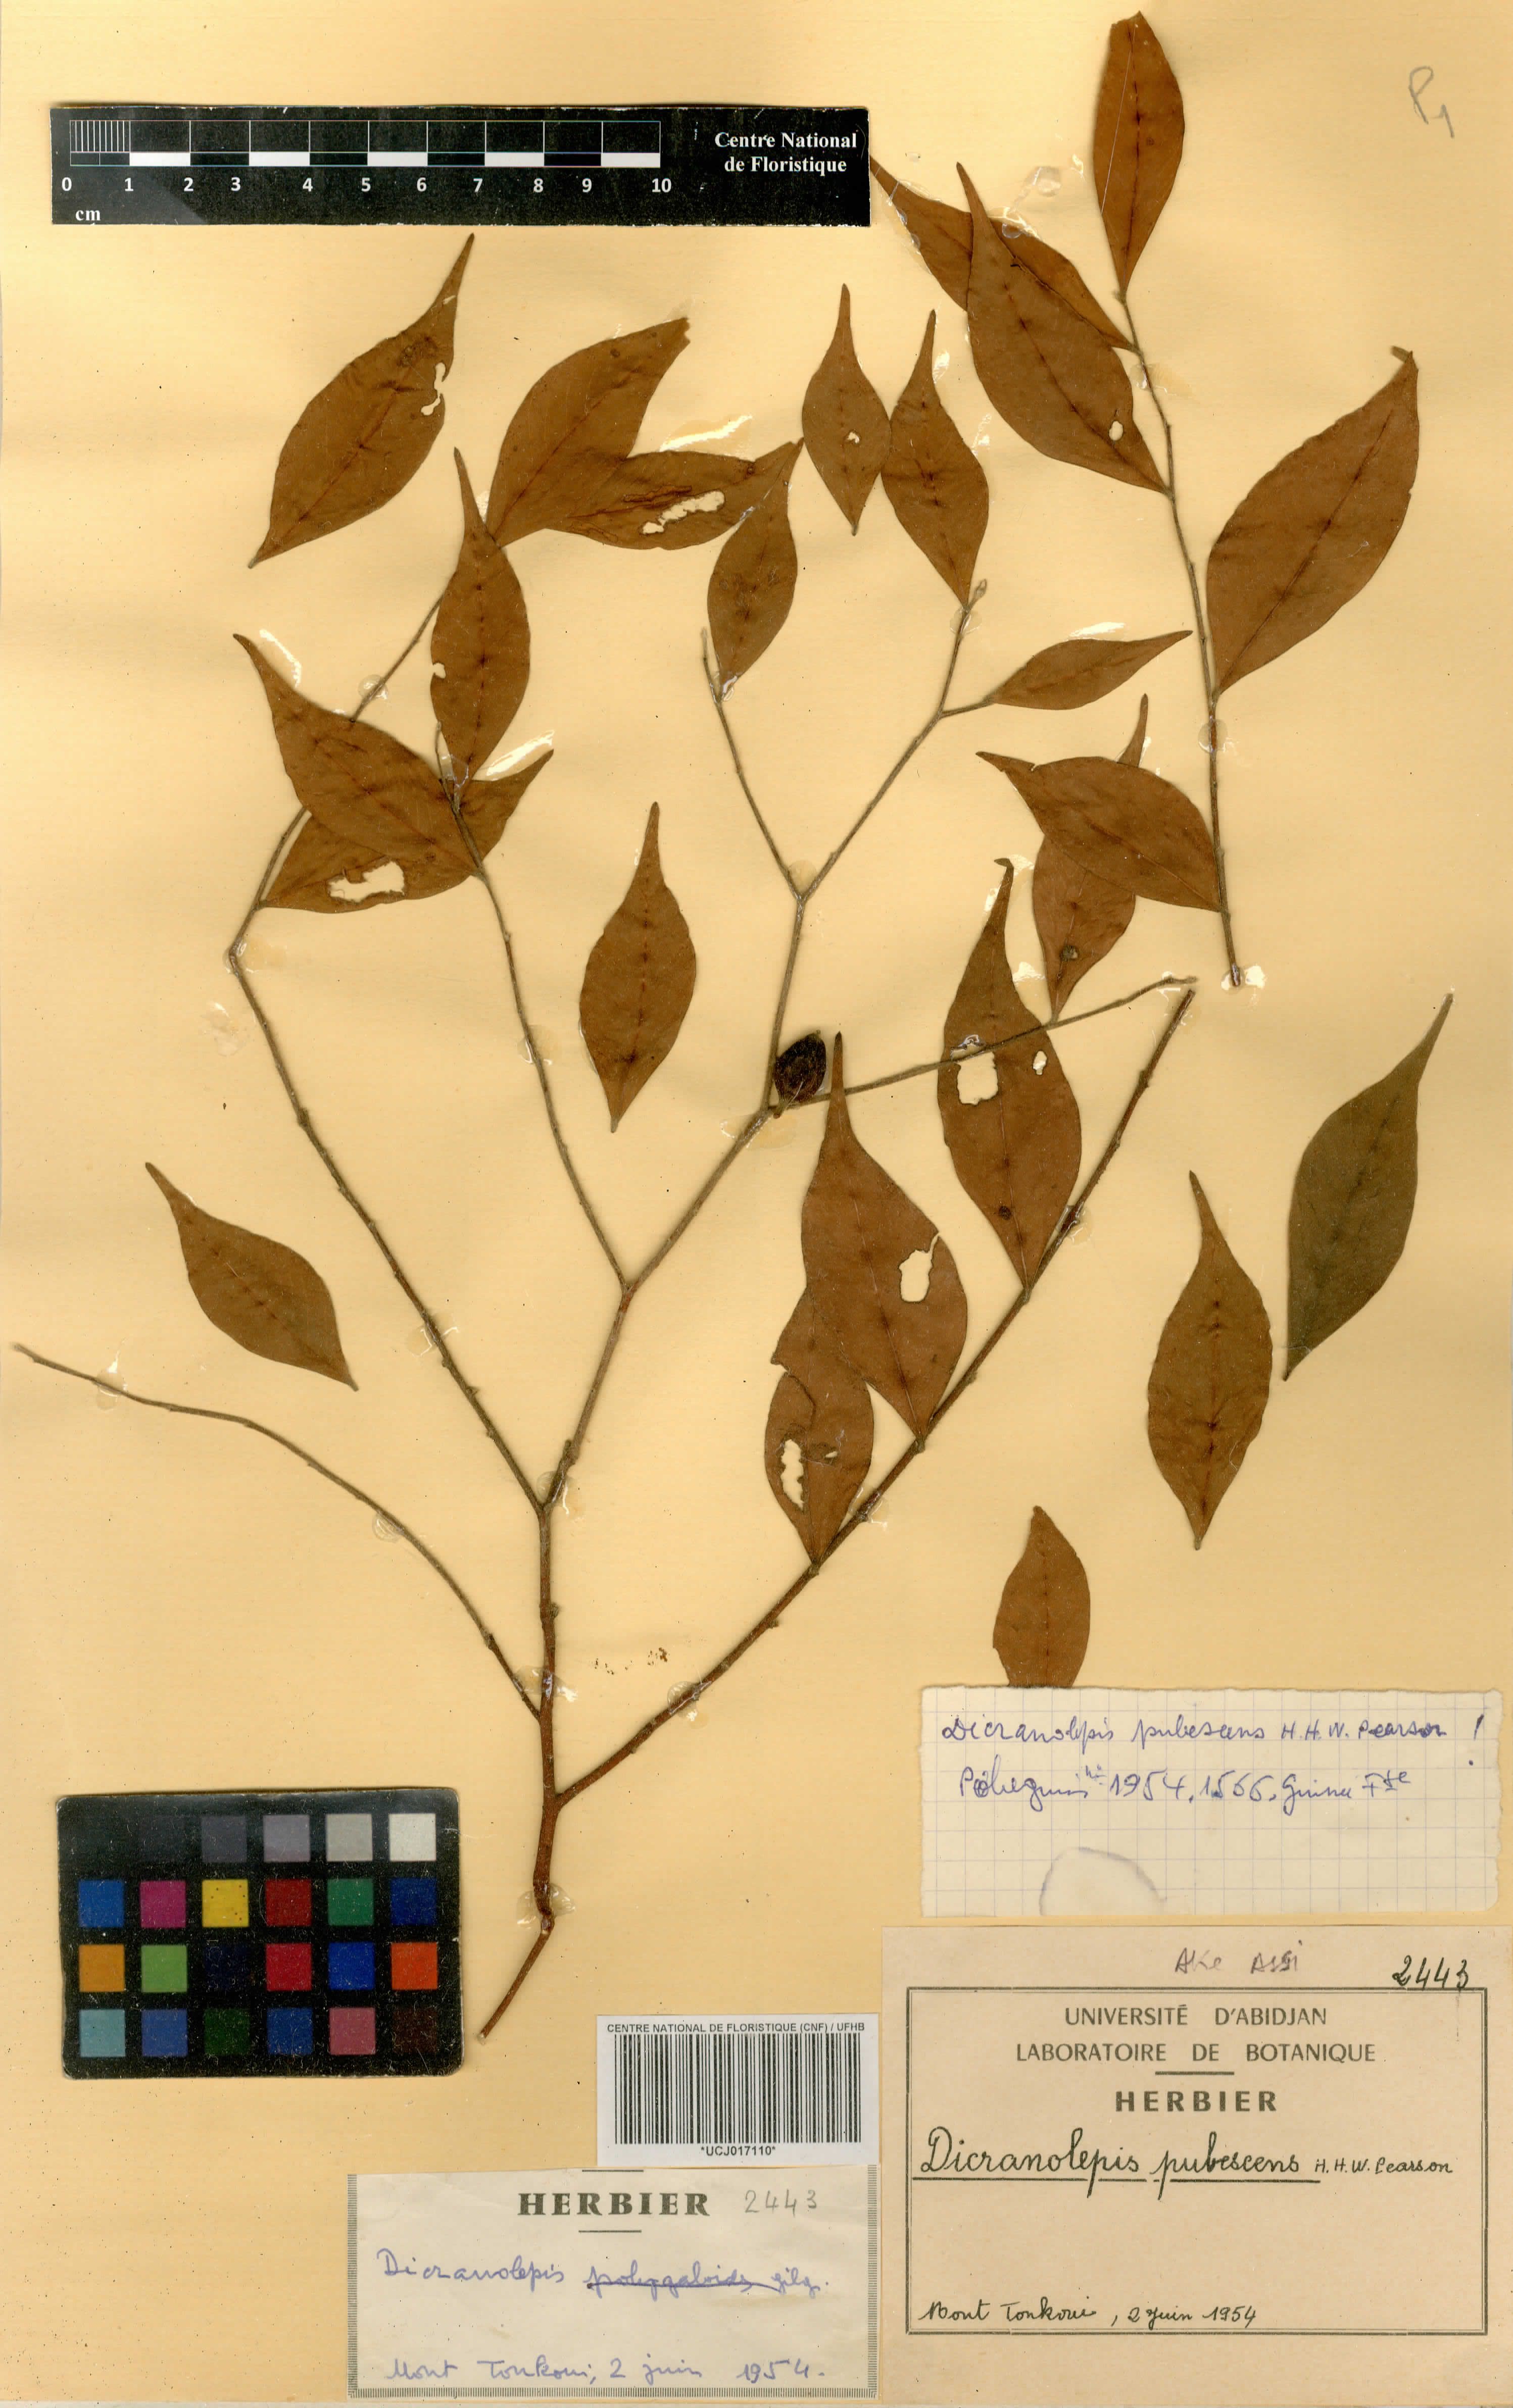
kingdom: Plantae
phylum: Tracheophyta
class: Magnoliopsida
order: Malvales
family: Thymelaeaceae
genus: Dicranolepis
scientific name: Dicranolepis pubescens
